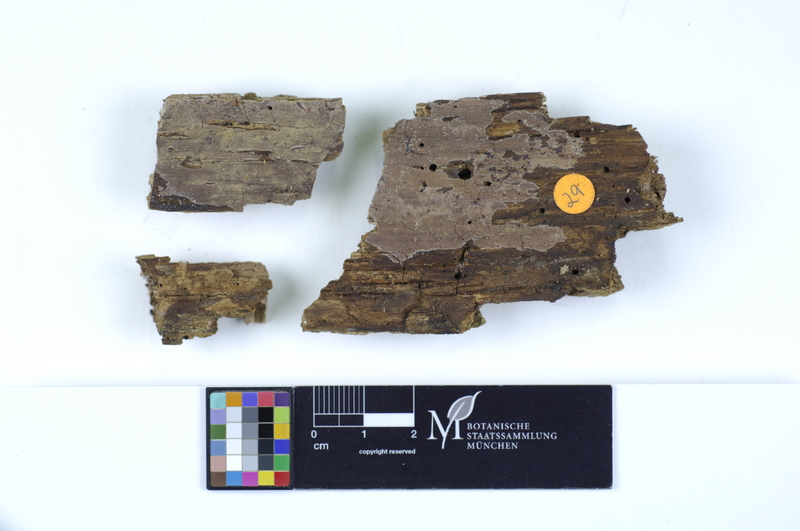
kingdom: Fungi
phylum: Basidiomycota
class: Agaricomycetes
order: Polyporales
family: Irpicaceae
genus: Ceriporia
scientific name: Ceriporia purpurea
